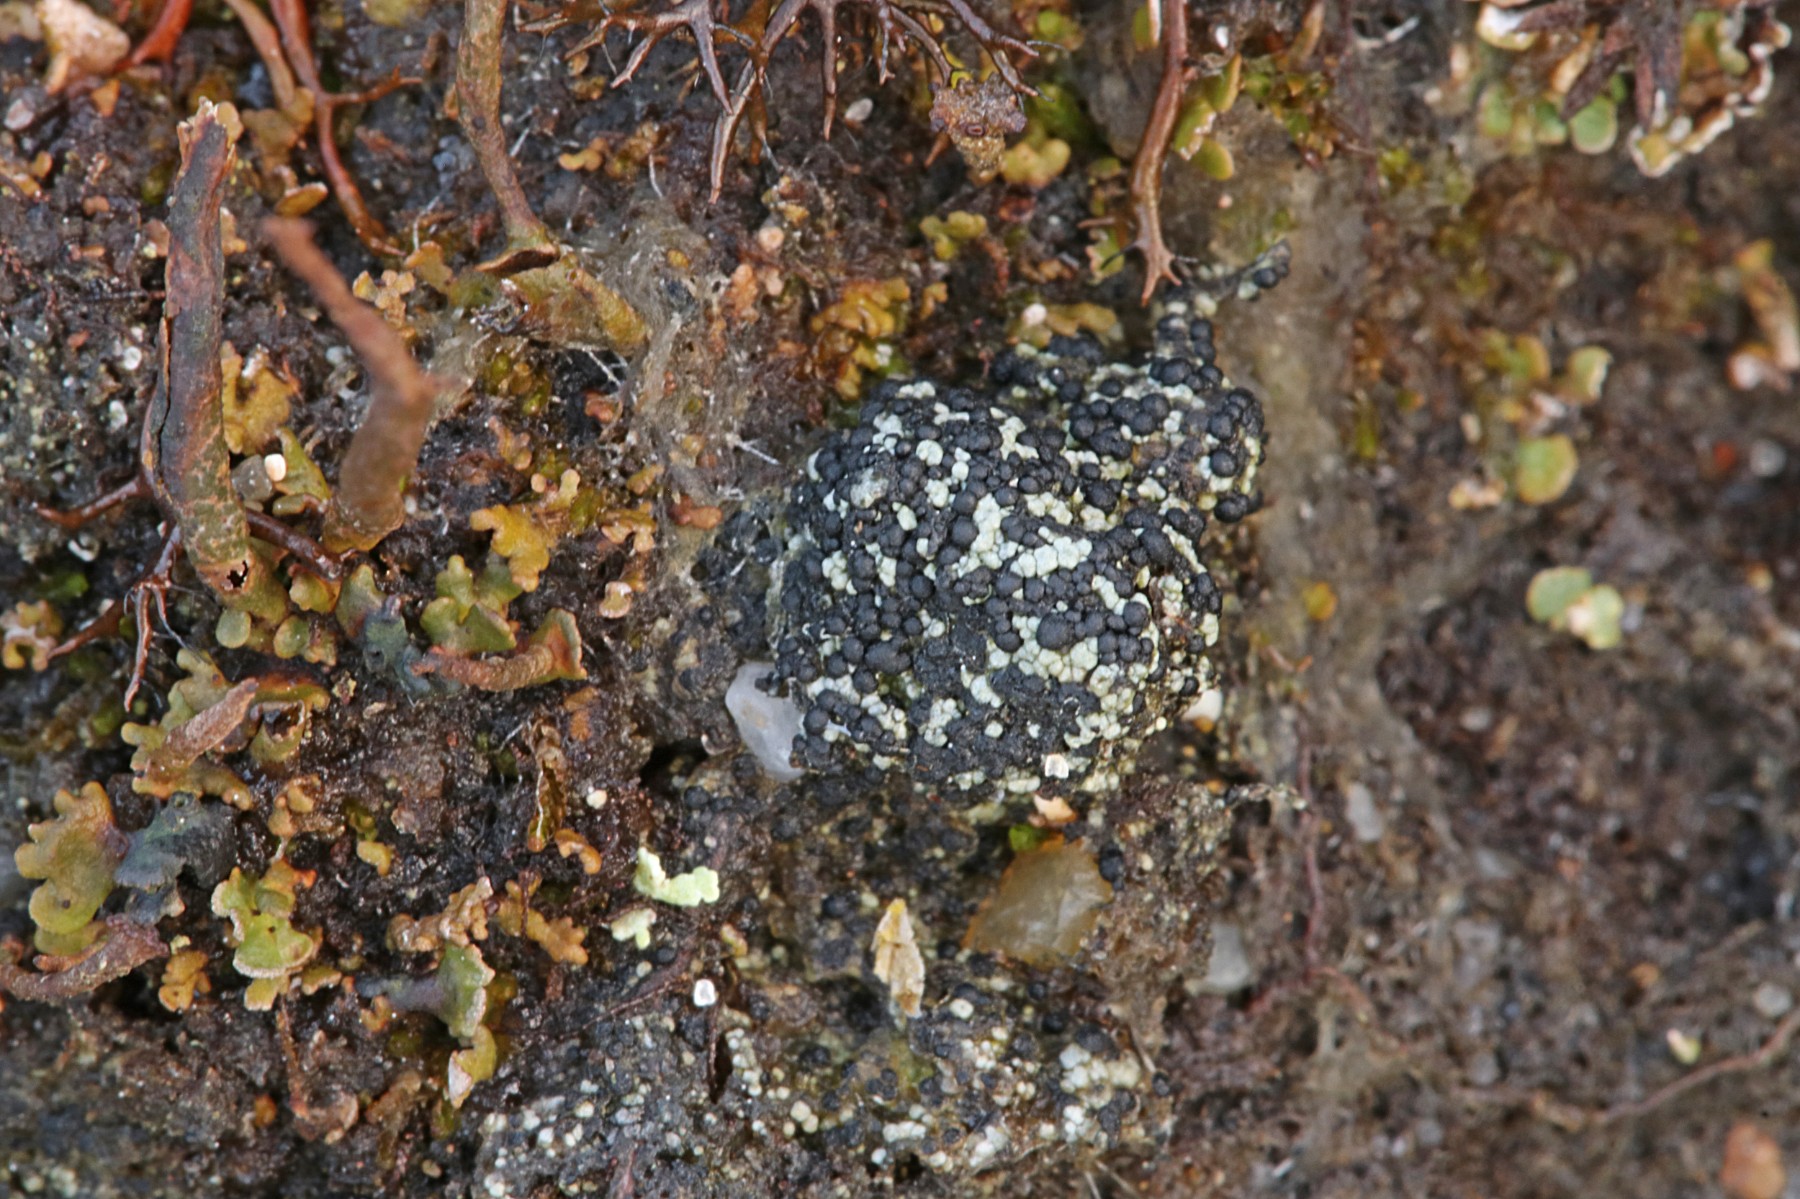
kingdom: Fungi
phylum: Ascomycota
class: Lecanoromycetes
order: Lecanorales
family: Byssolomataceae
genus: Micarea
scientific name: Micarea lignaria
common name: tørve-knaplav
